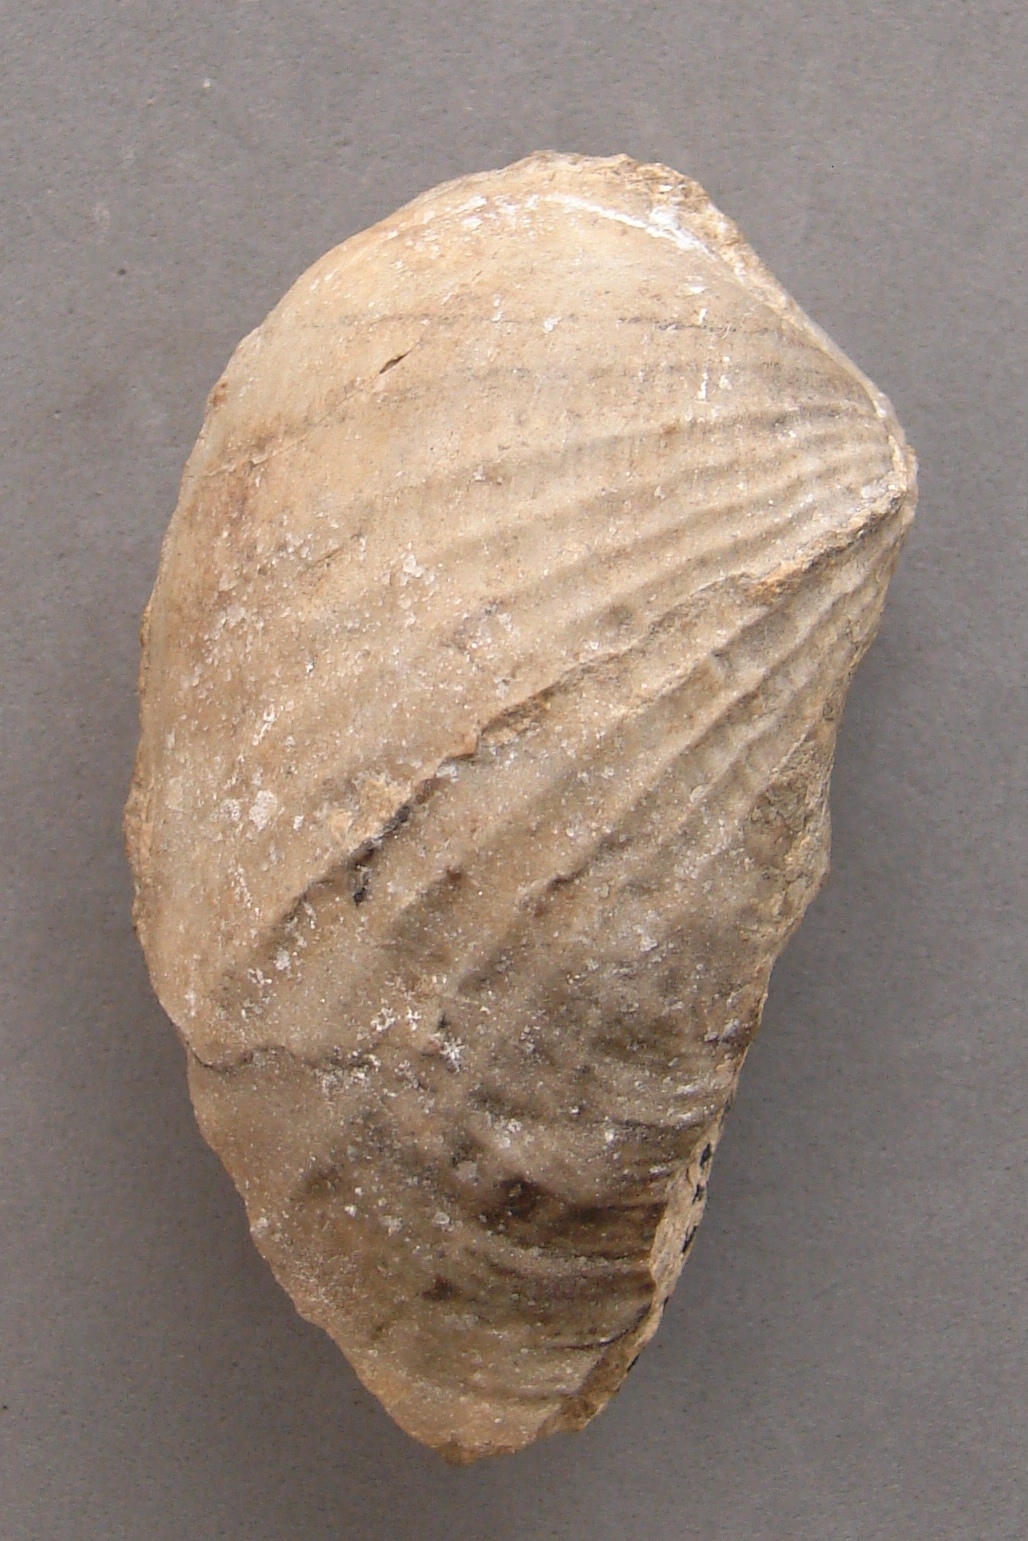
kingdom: Animalia
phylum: Mollusca
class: Bivalvia
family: Pholadomyidae
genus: Pholadomya
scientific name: Pholadomya
